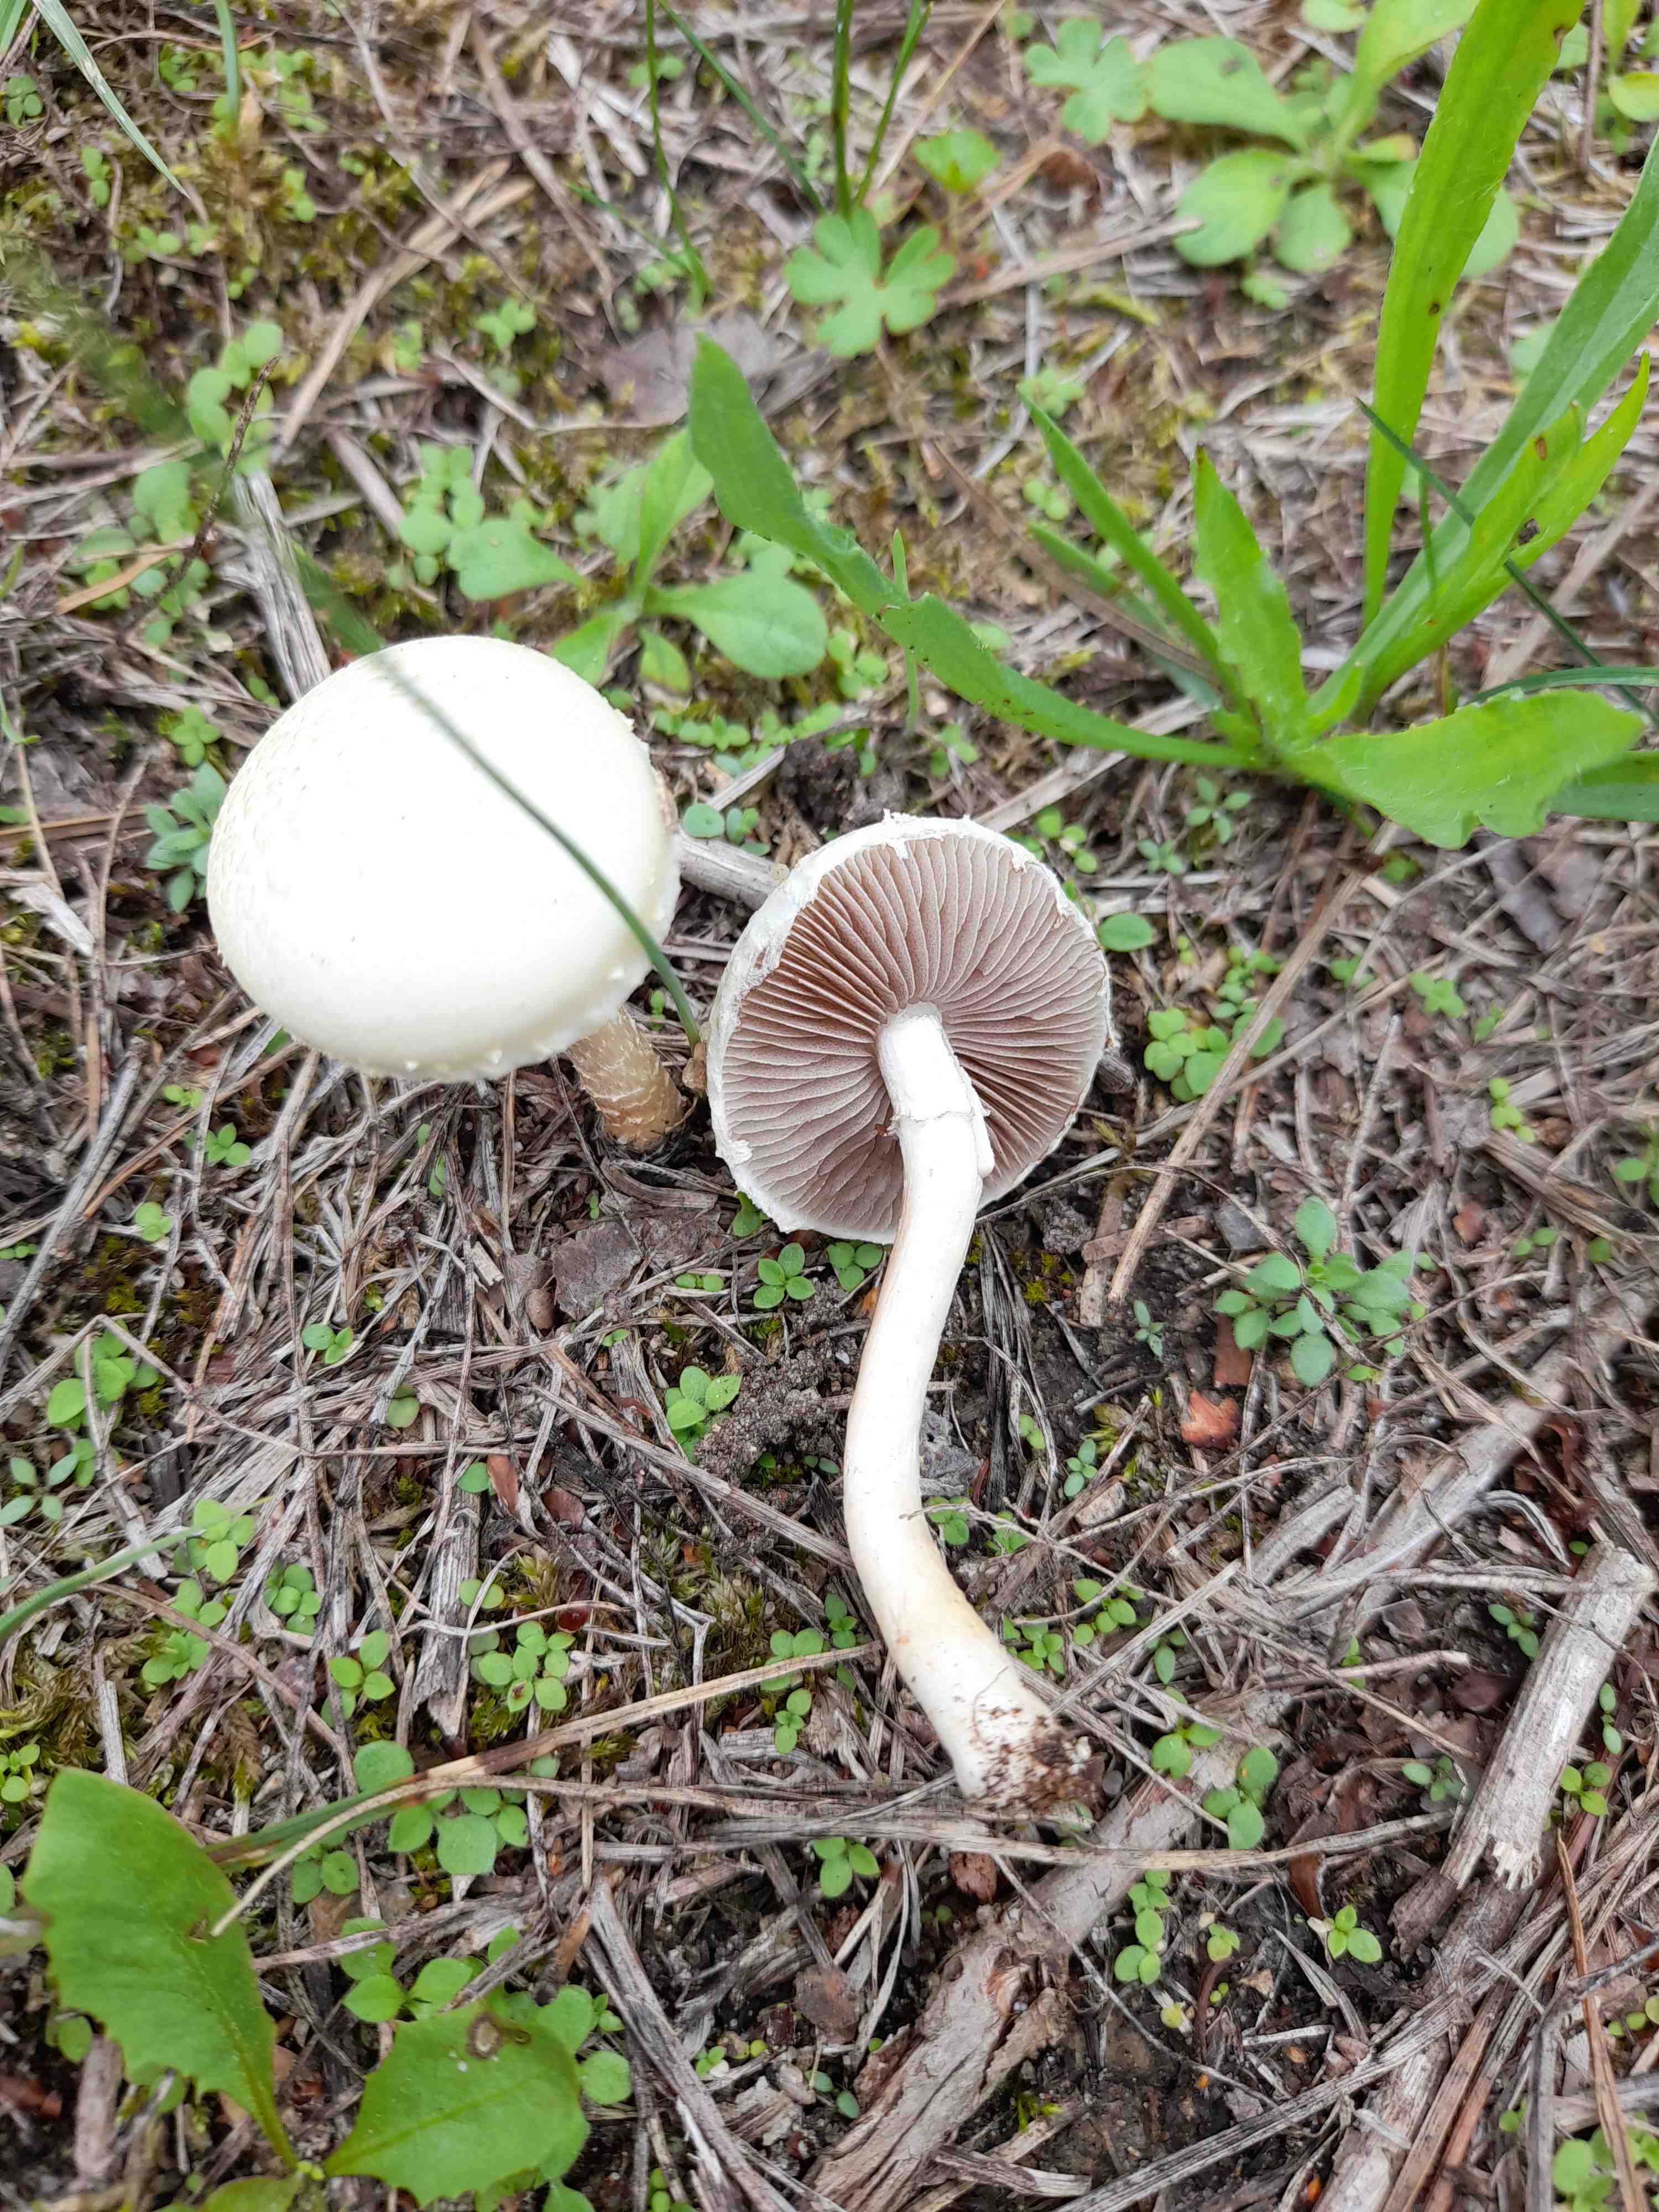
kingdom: Fungi
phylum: Basidiomycota
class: Agaricomycetes
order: Agaricales
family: Strophariaceae
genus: Agrocybe
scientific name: Agrocybe dura
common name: fastkødet agerhat
